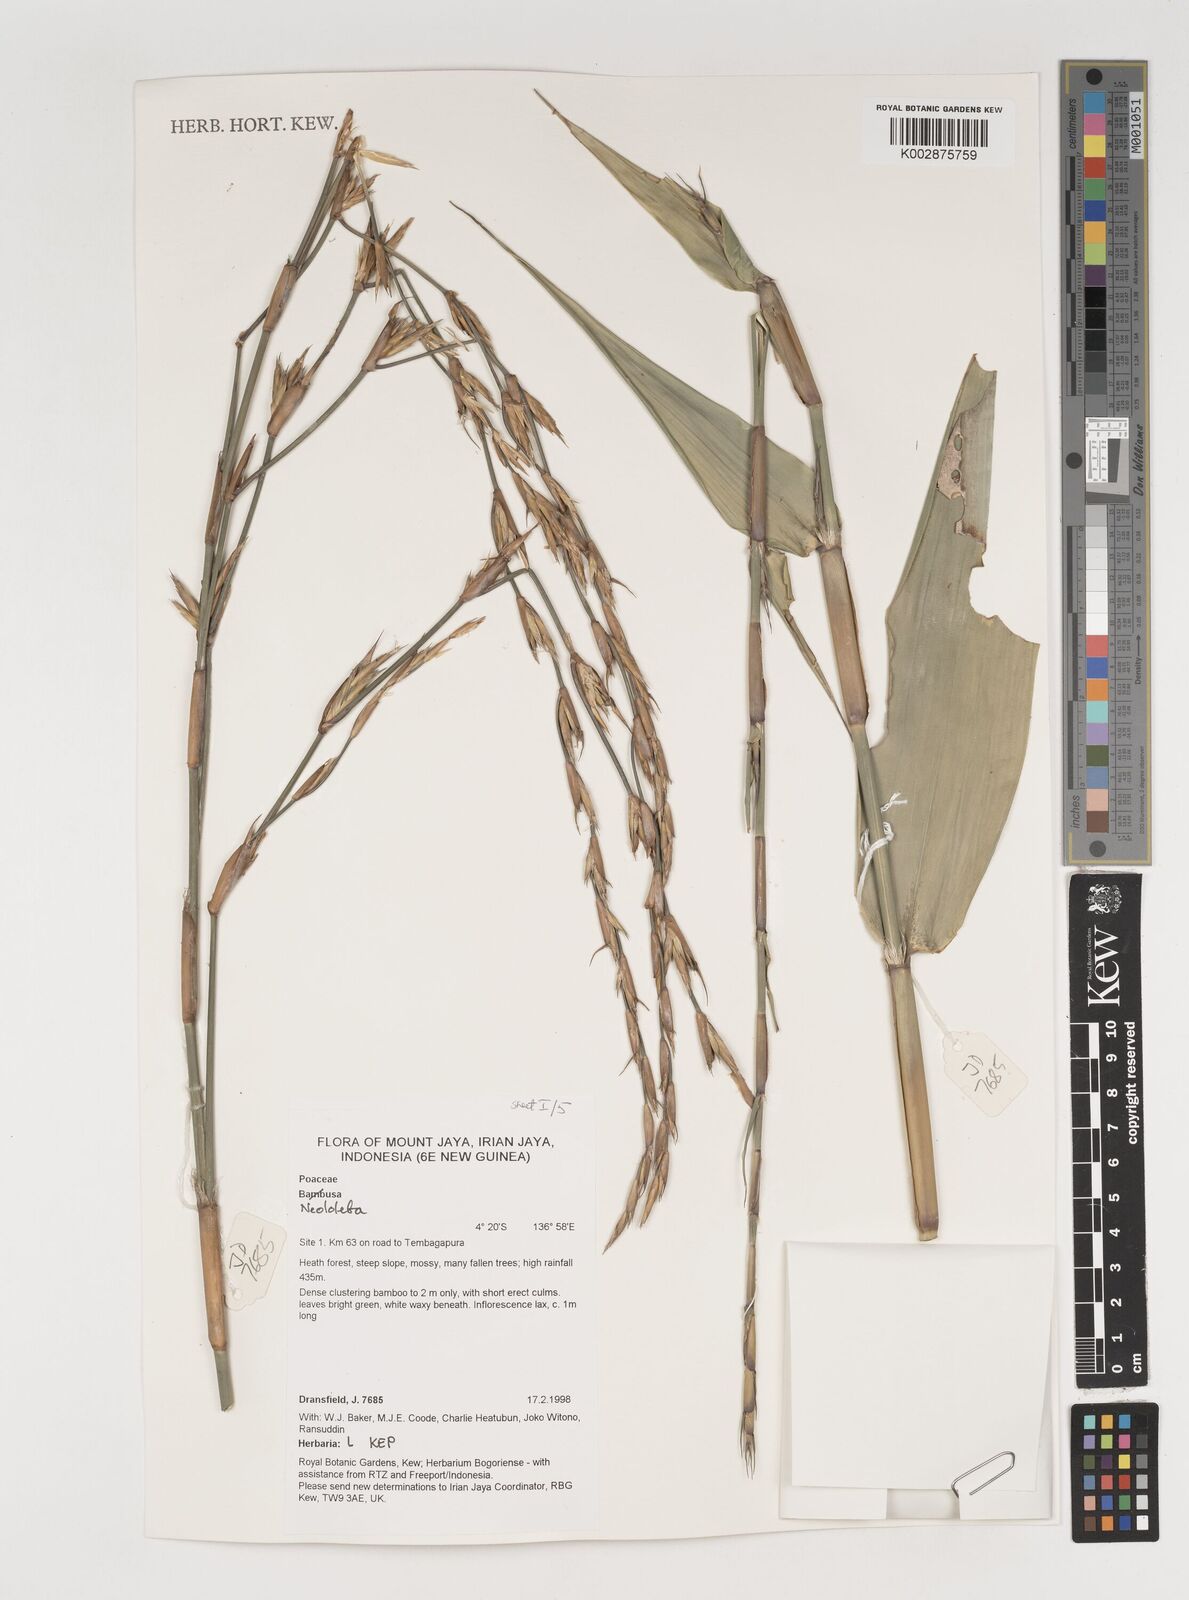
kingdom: Plantae
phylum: Tracheophyta
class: Liliopsida
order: Poales
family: Poaceae
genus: Neololeba
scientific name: Neololeba
